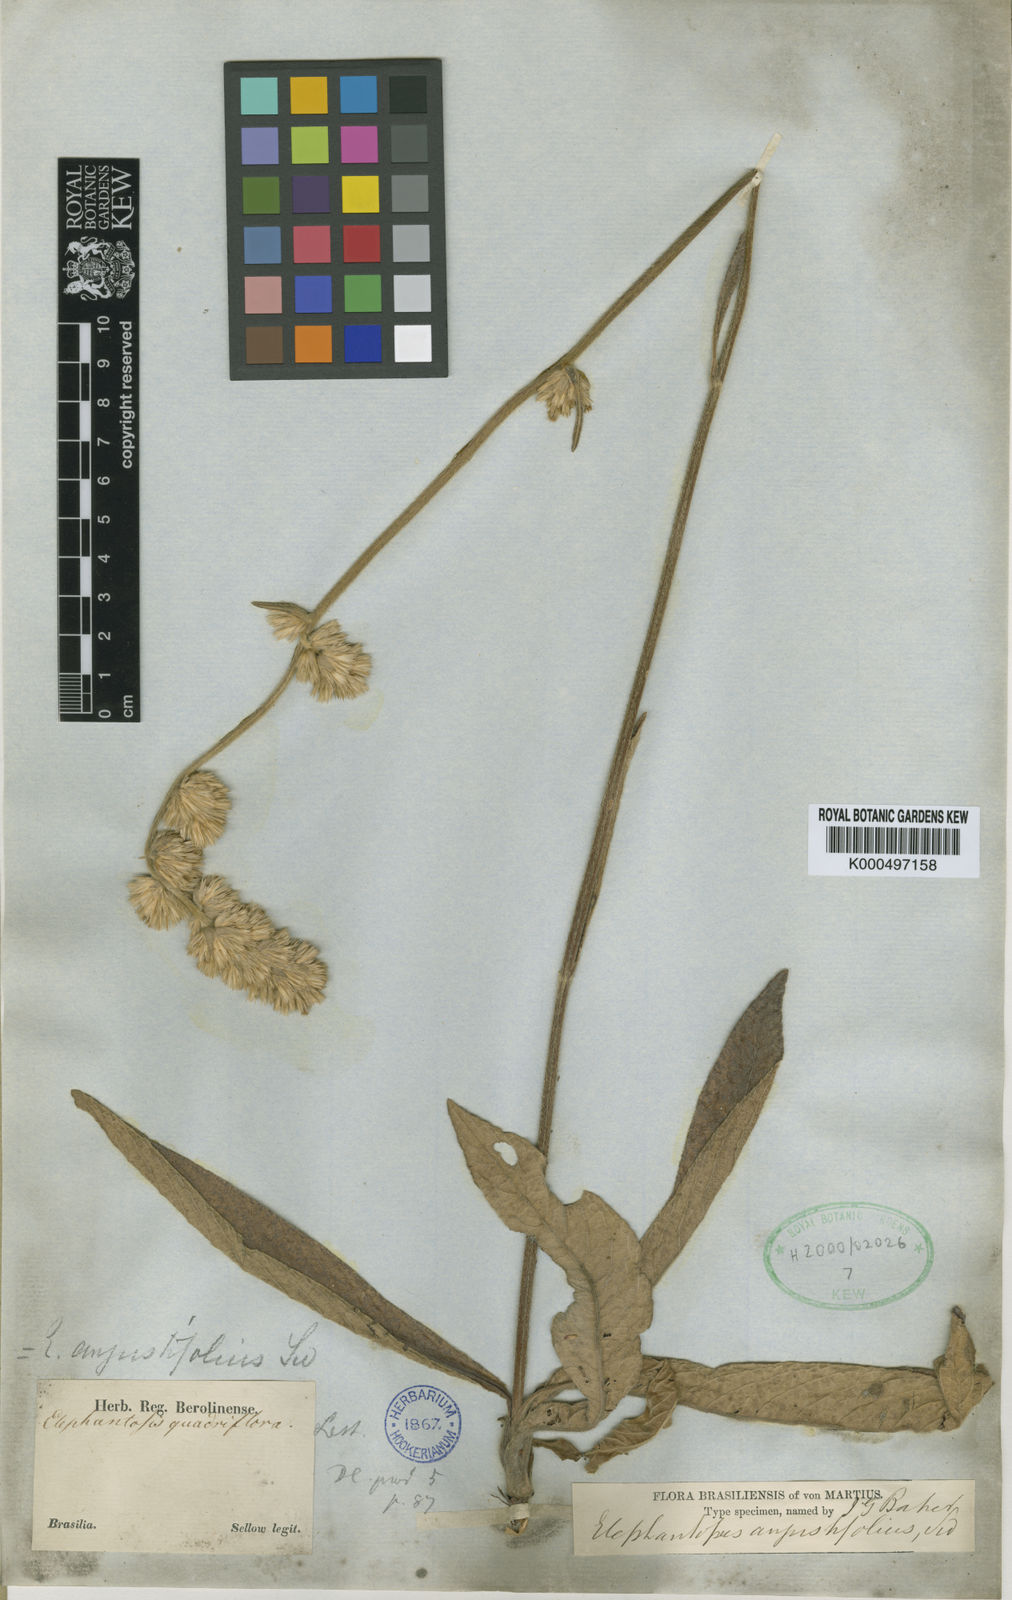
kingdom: Plantae
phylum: Tracheophyta
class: Magnoliopsida
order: Asterales
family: Asteraceae
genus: Orthopappus
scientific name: Orthopappus angustifolius
